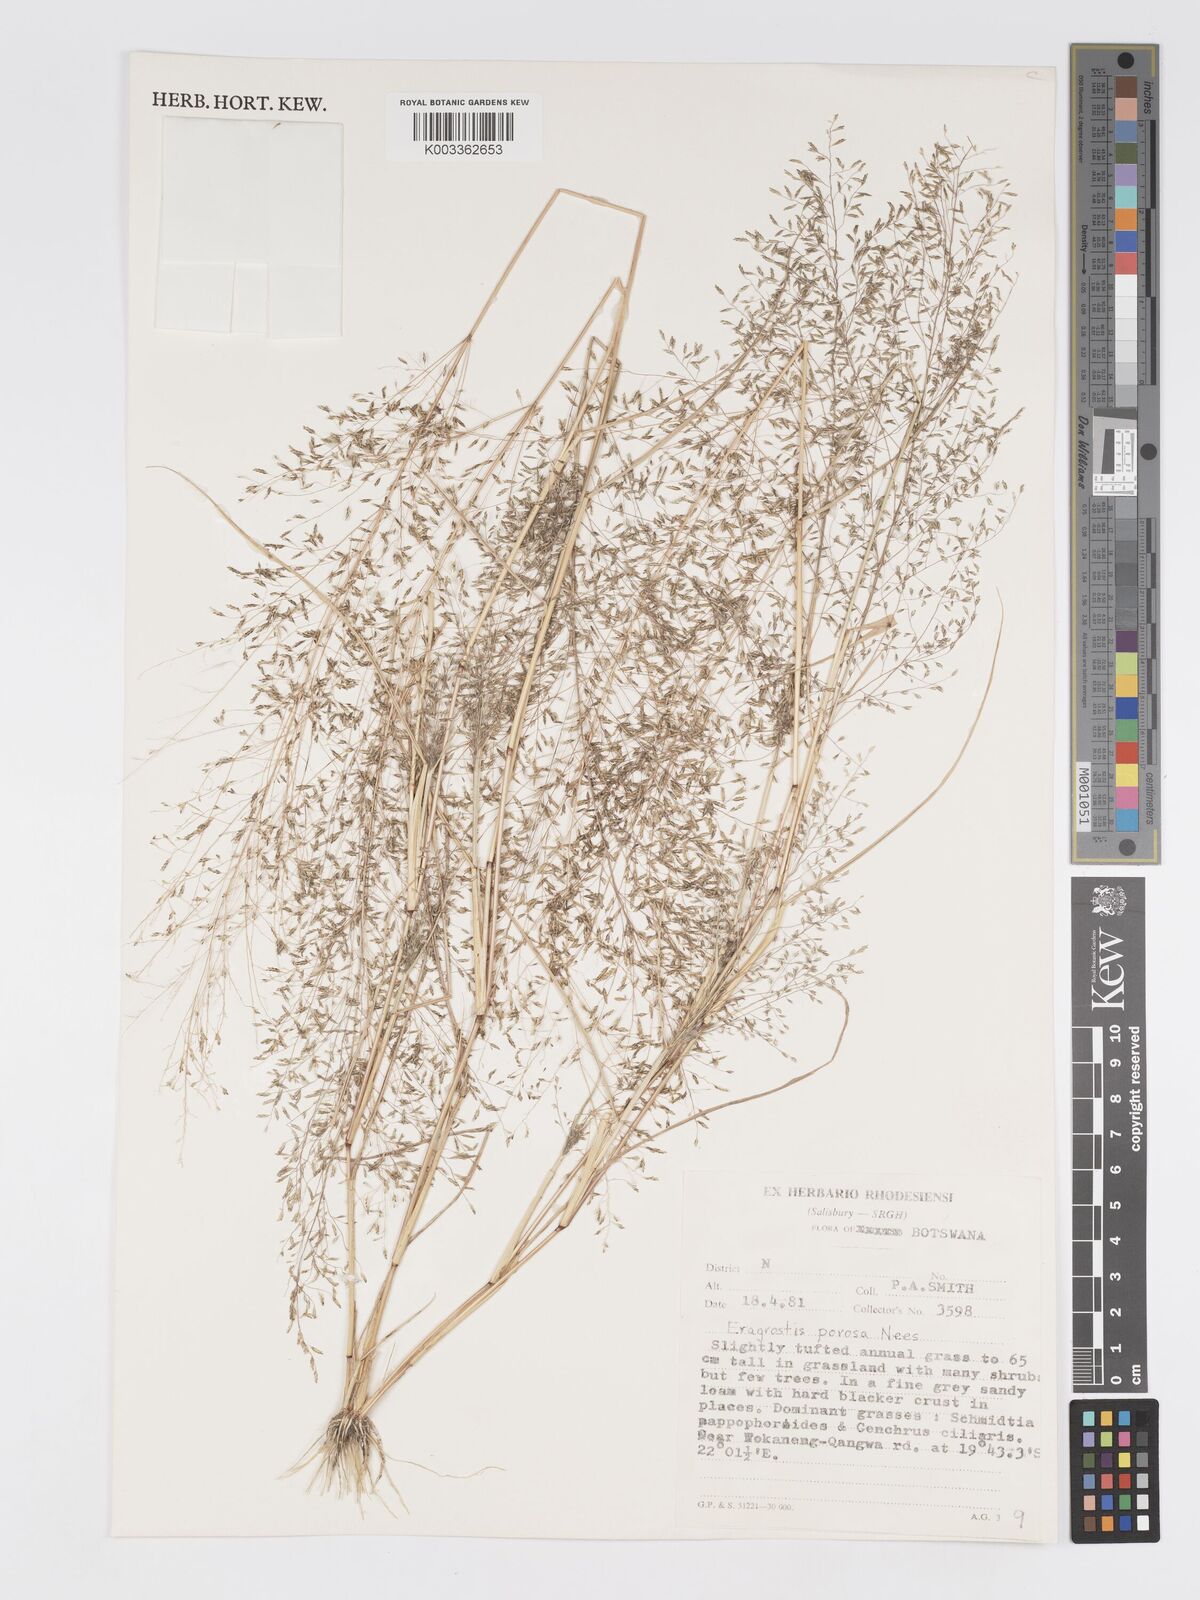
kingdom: Plantae
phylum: Tracheophyta
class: Liliopsida
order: Poales
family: Poaceae
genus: Eragrostis
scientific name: Eragrostis porosa
